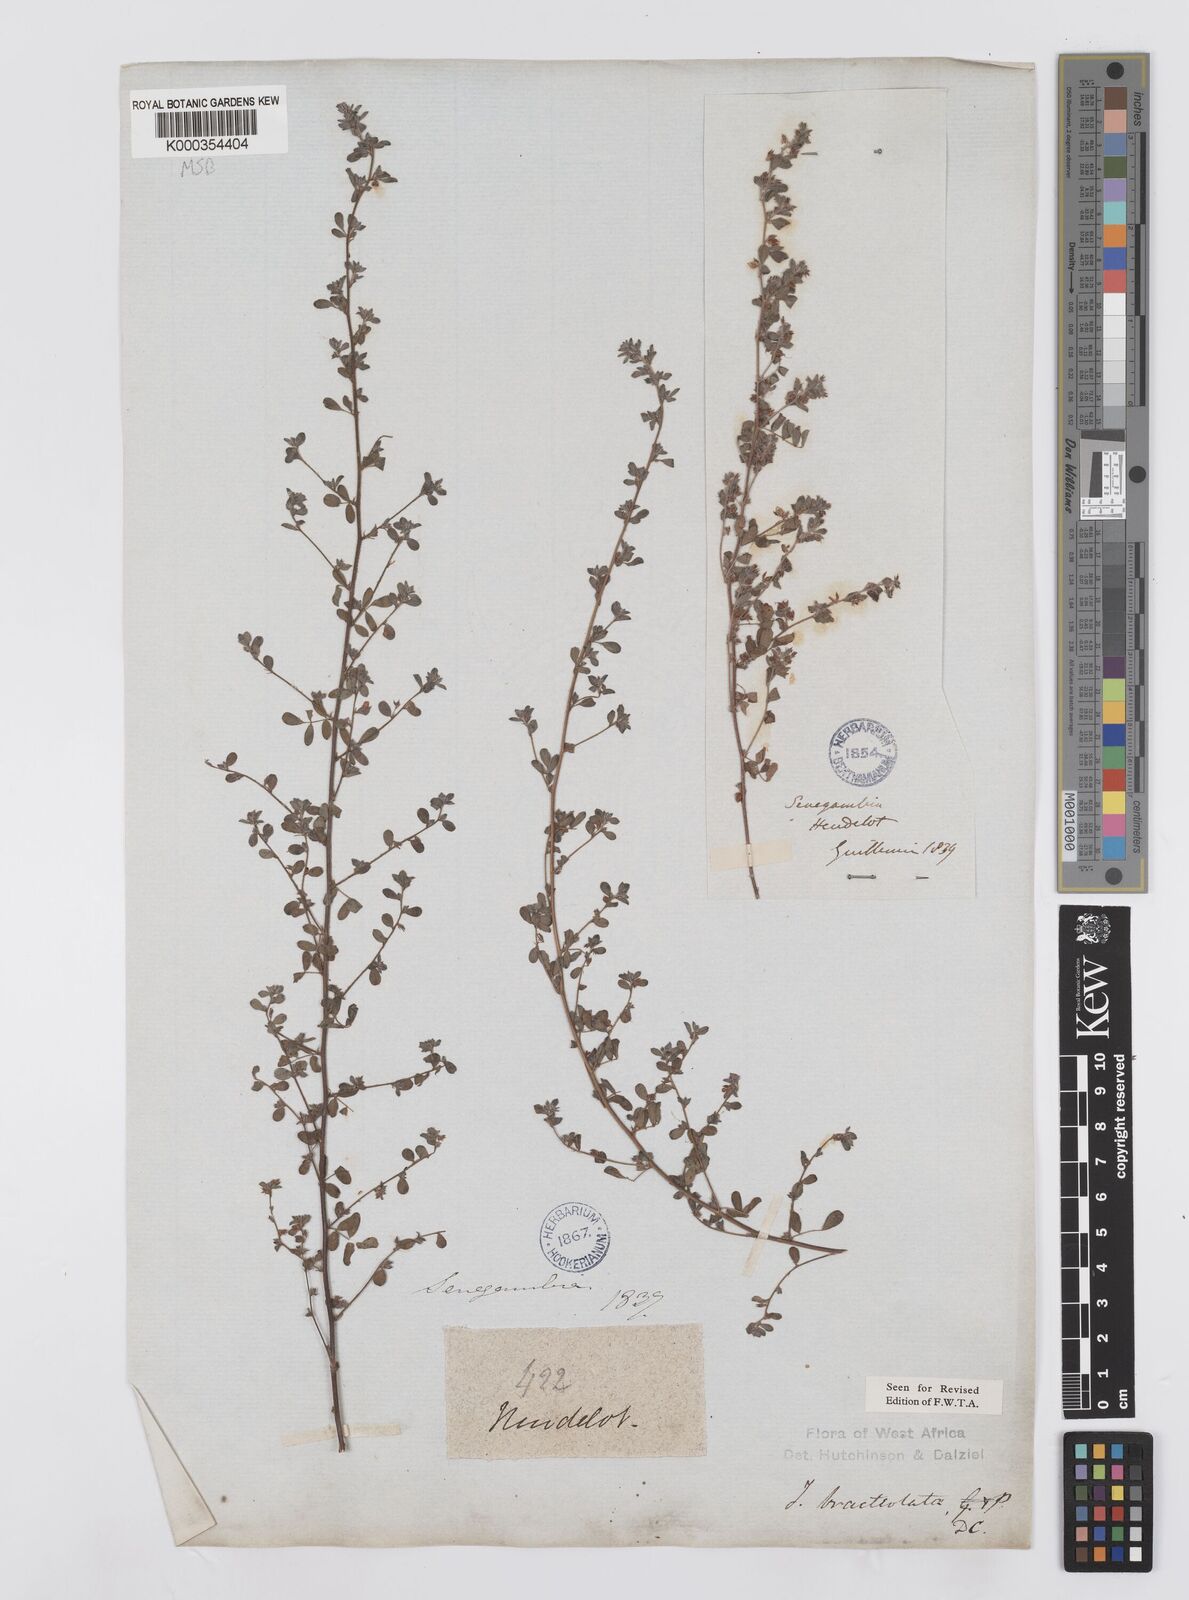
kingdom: Plantae
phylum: Tracheophyta
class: Magnoliopsida
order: Fabales
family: Fabaceae
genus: Indigofera
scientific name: Indigofera bracteolata
